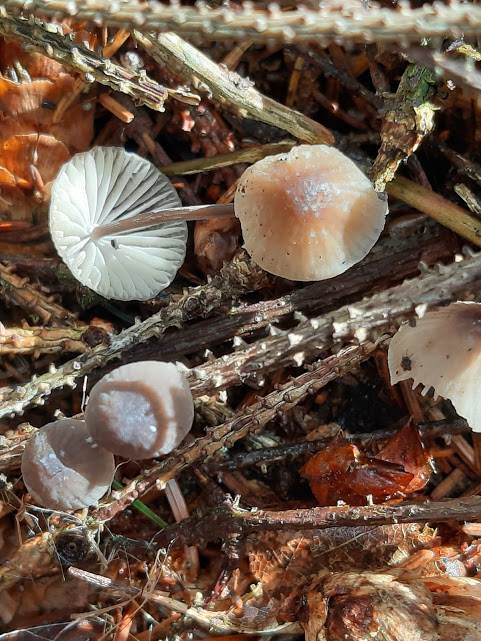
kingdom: Fungi
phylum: Basidiomycota
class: Agaricomycetes
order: Agaricales
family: Mycenaceae
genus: Mycena
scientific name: Mycena zephirus
